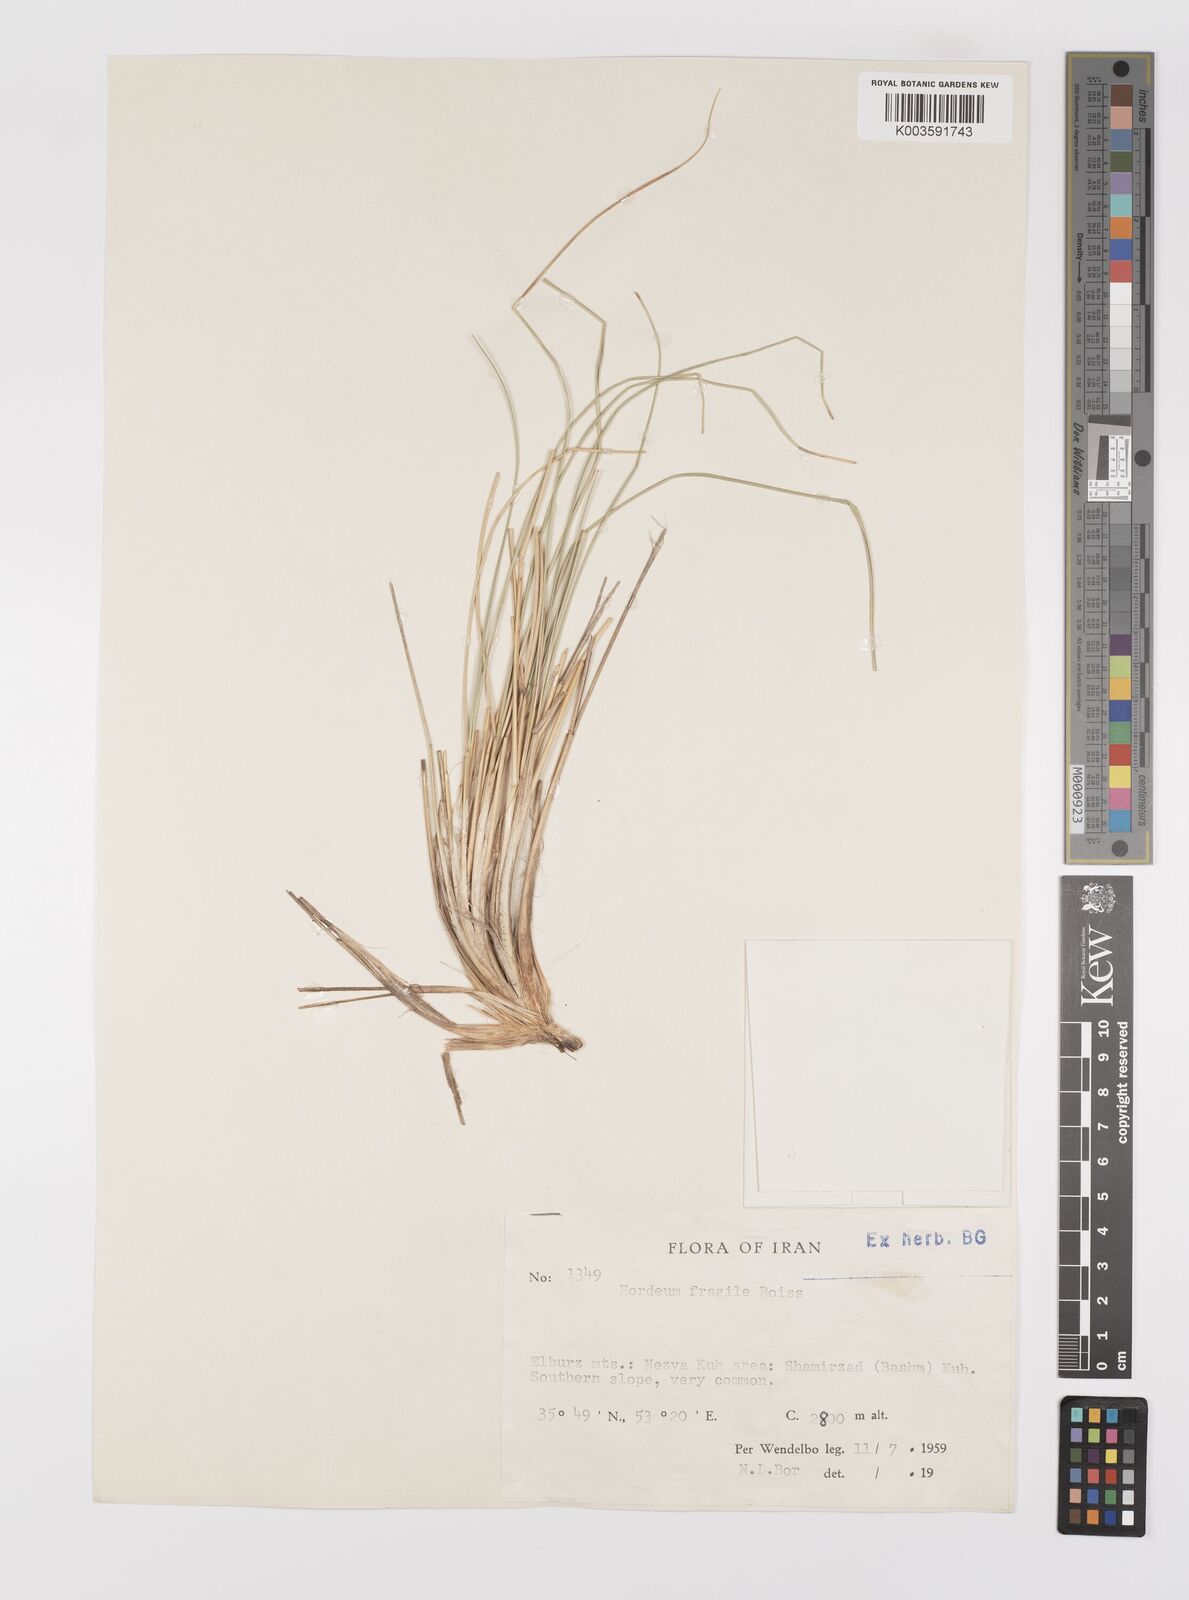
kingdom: Plantae
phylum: Tracheophyta
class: Liliopsida
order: Poales
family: Poaceae
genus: Psathyrostachys
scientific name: Psathyrostachys fragilis
